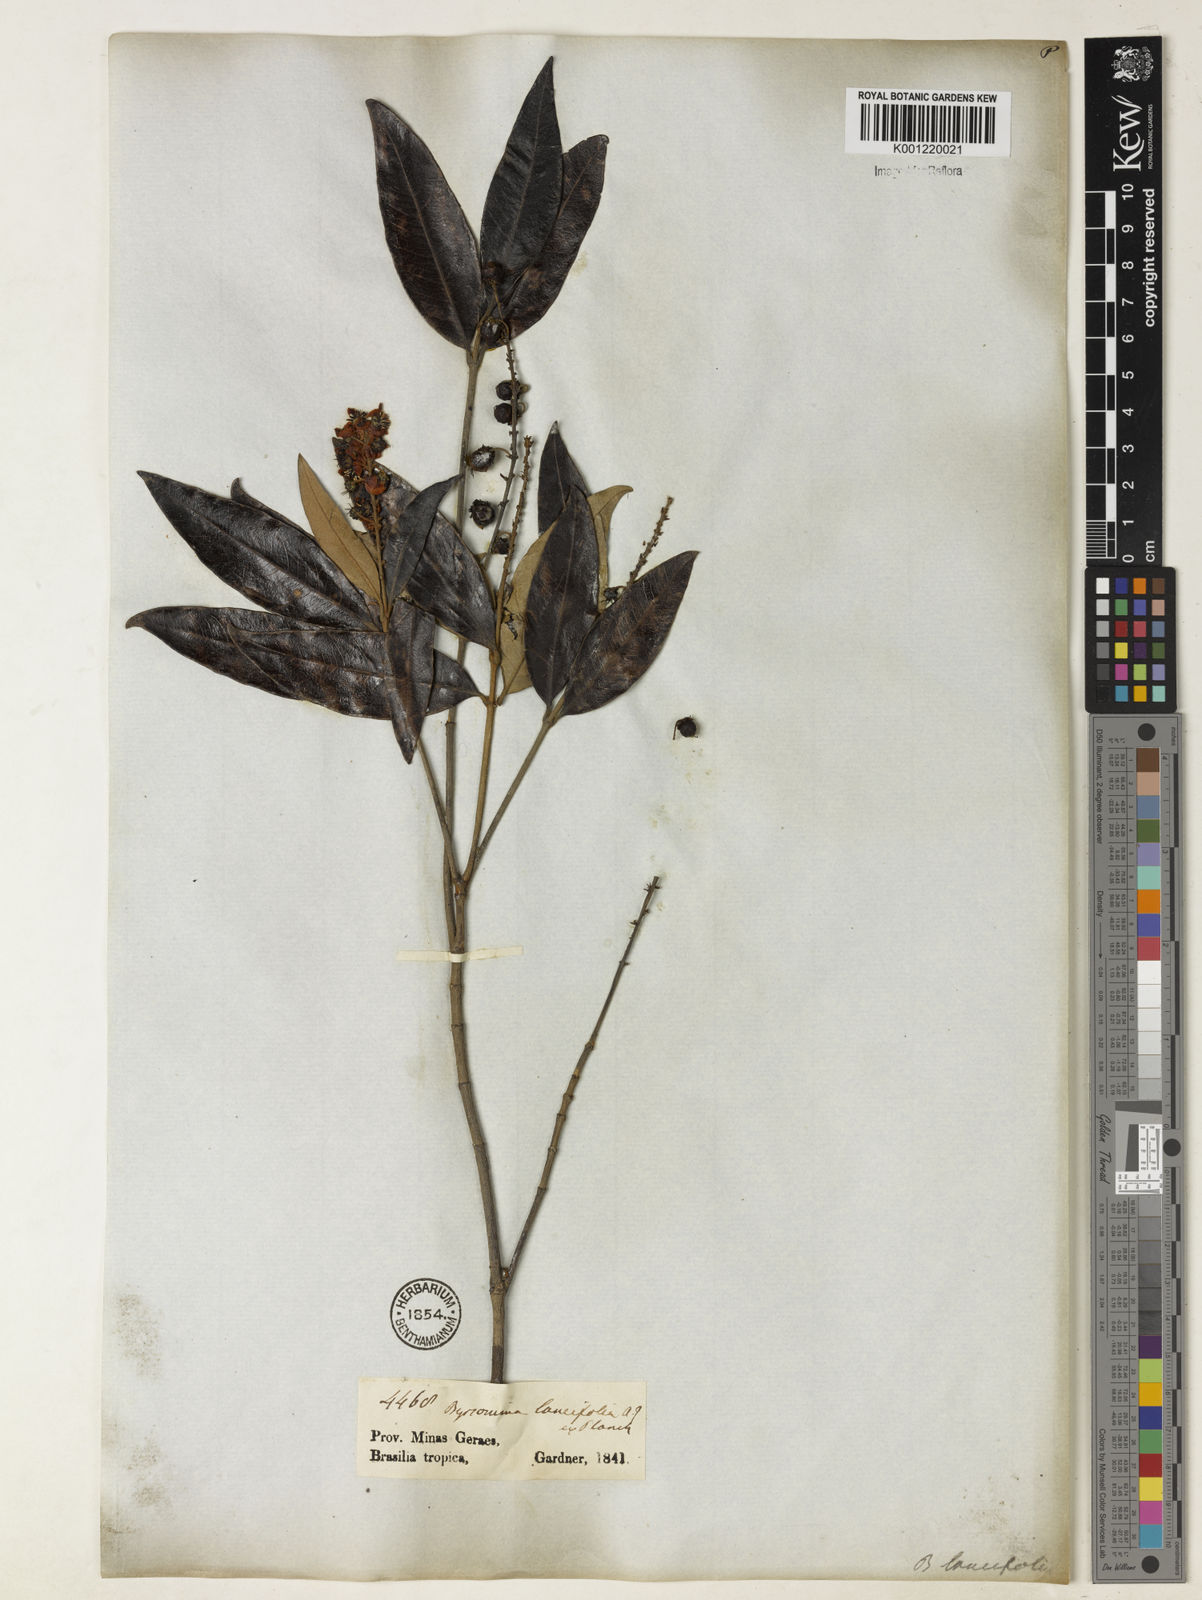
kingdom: Plantae
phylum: Tracheophyta
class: Magnoliopsida
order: Malpighiales
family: Malpighiaceae
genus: Byrsonima
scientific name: Byrsonima lancifolia
